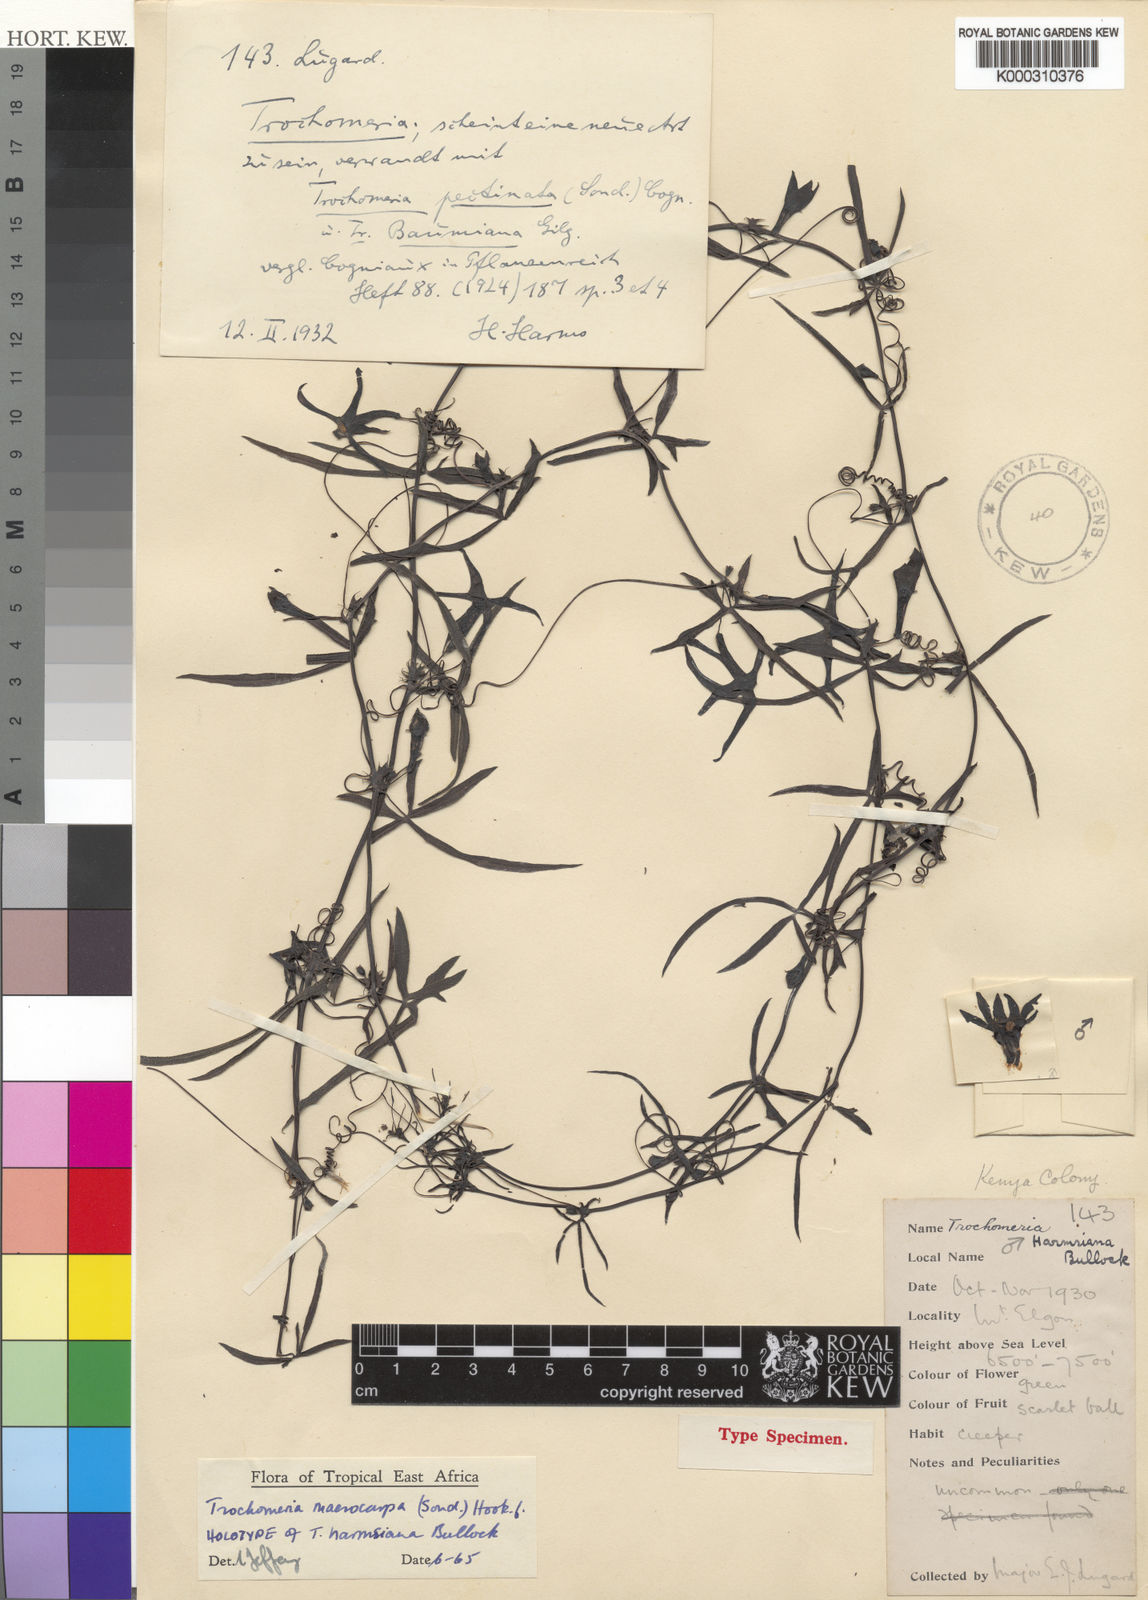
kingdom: Plantae
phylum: Tracheophyta
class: Magnoliopsida
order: Cucurbitales
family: Cucurbitaceae
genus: Trochomeria
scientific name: Trochomeria
